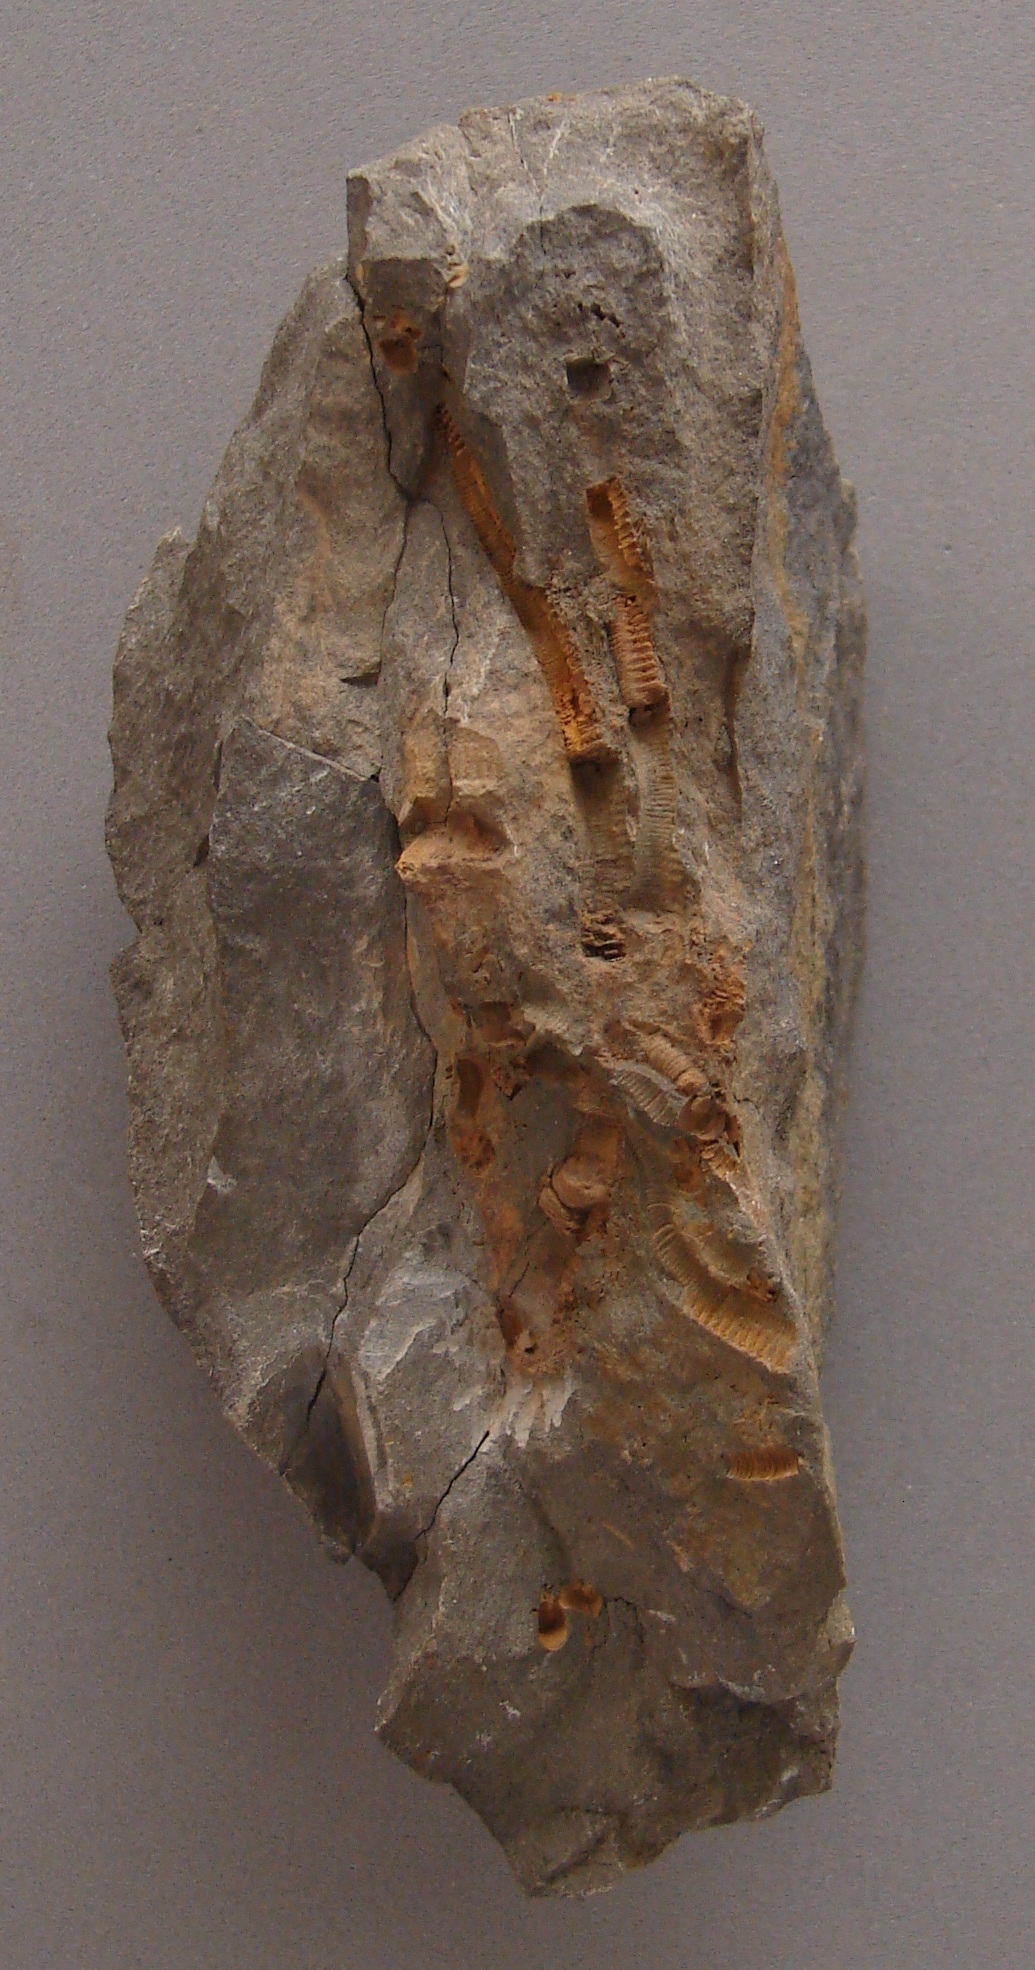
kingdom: Animalia
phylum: Echinodermata
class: Crinoidea
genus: Diamenocrinus
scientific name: Diamenocrinus
